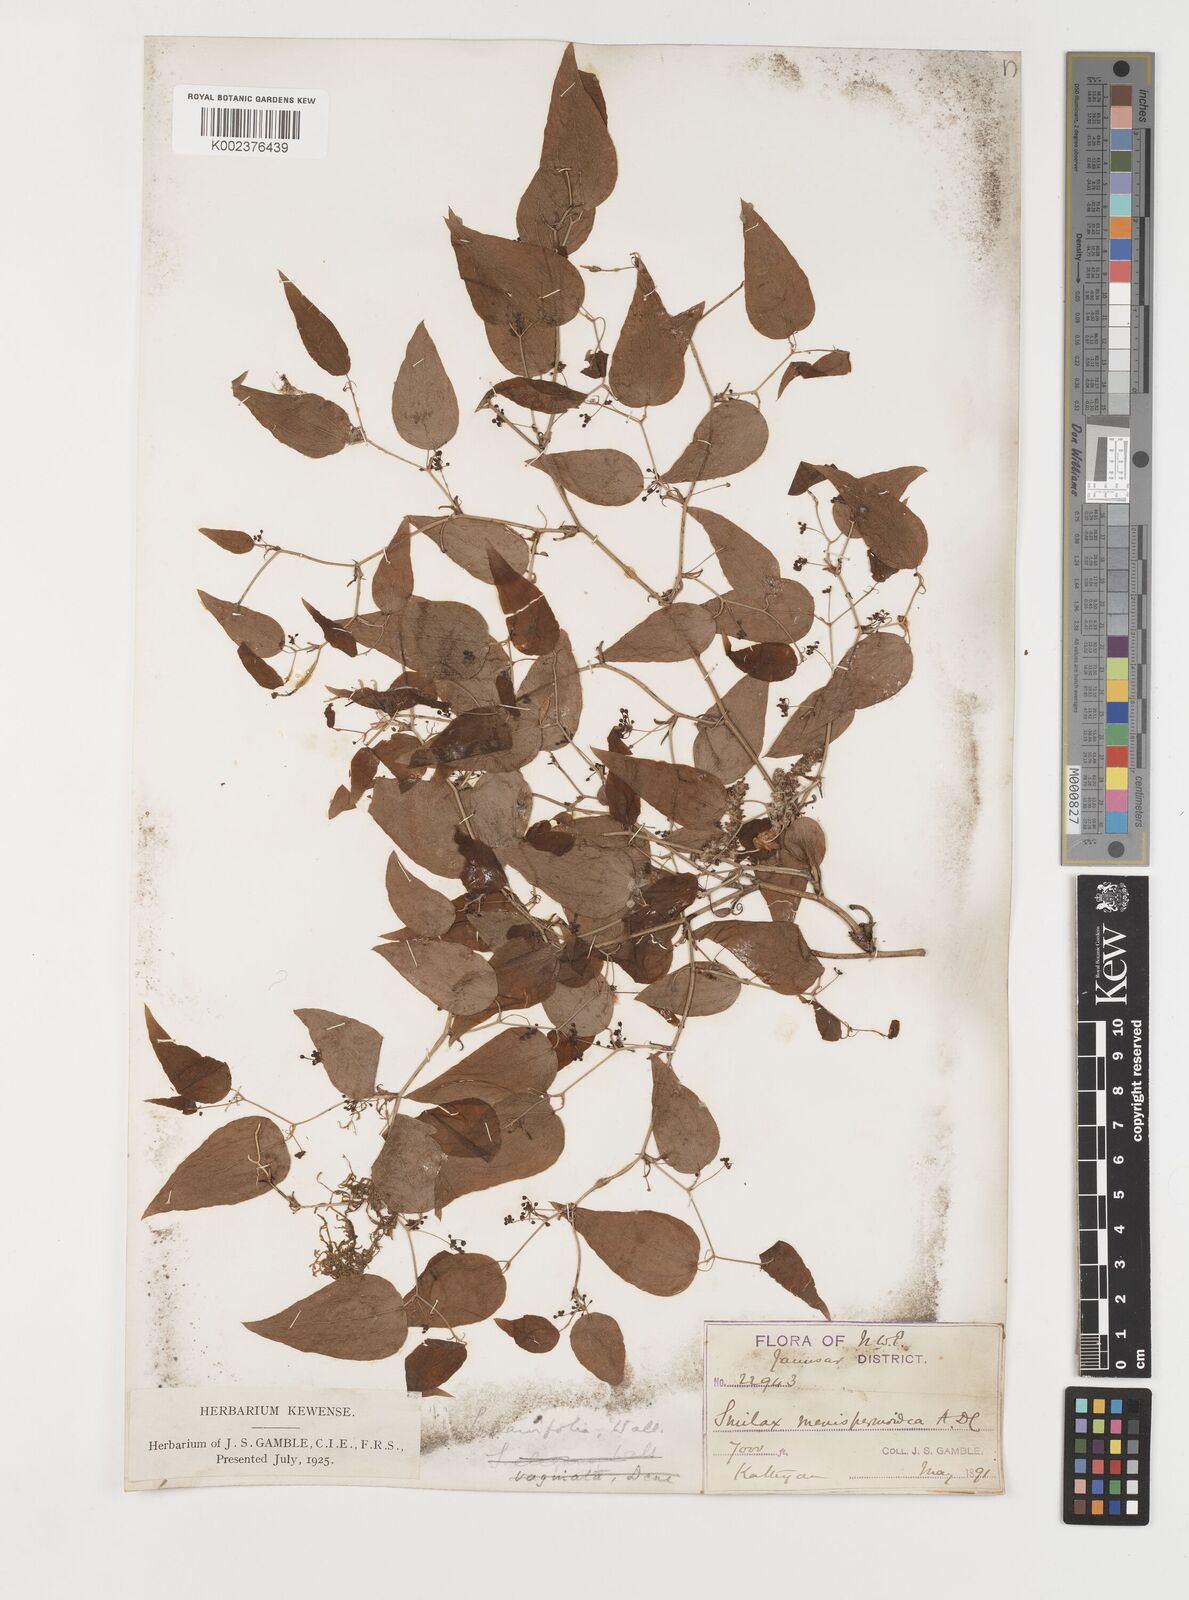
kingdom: Plantae
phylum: Tracheophyta
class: Liliopsida
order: Liliales
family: Smilacaceae
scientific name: Smilacaceae
